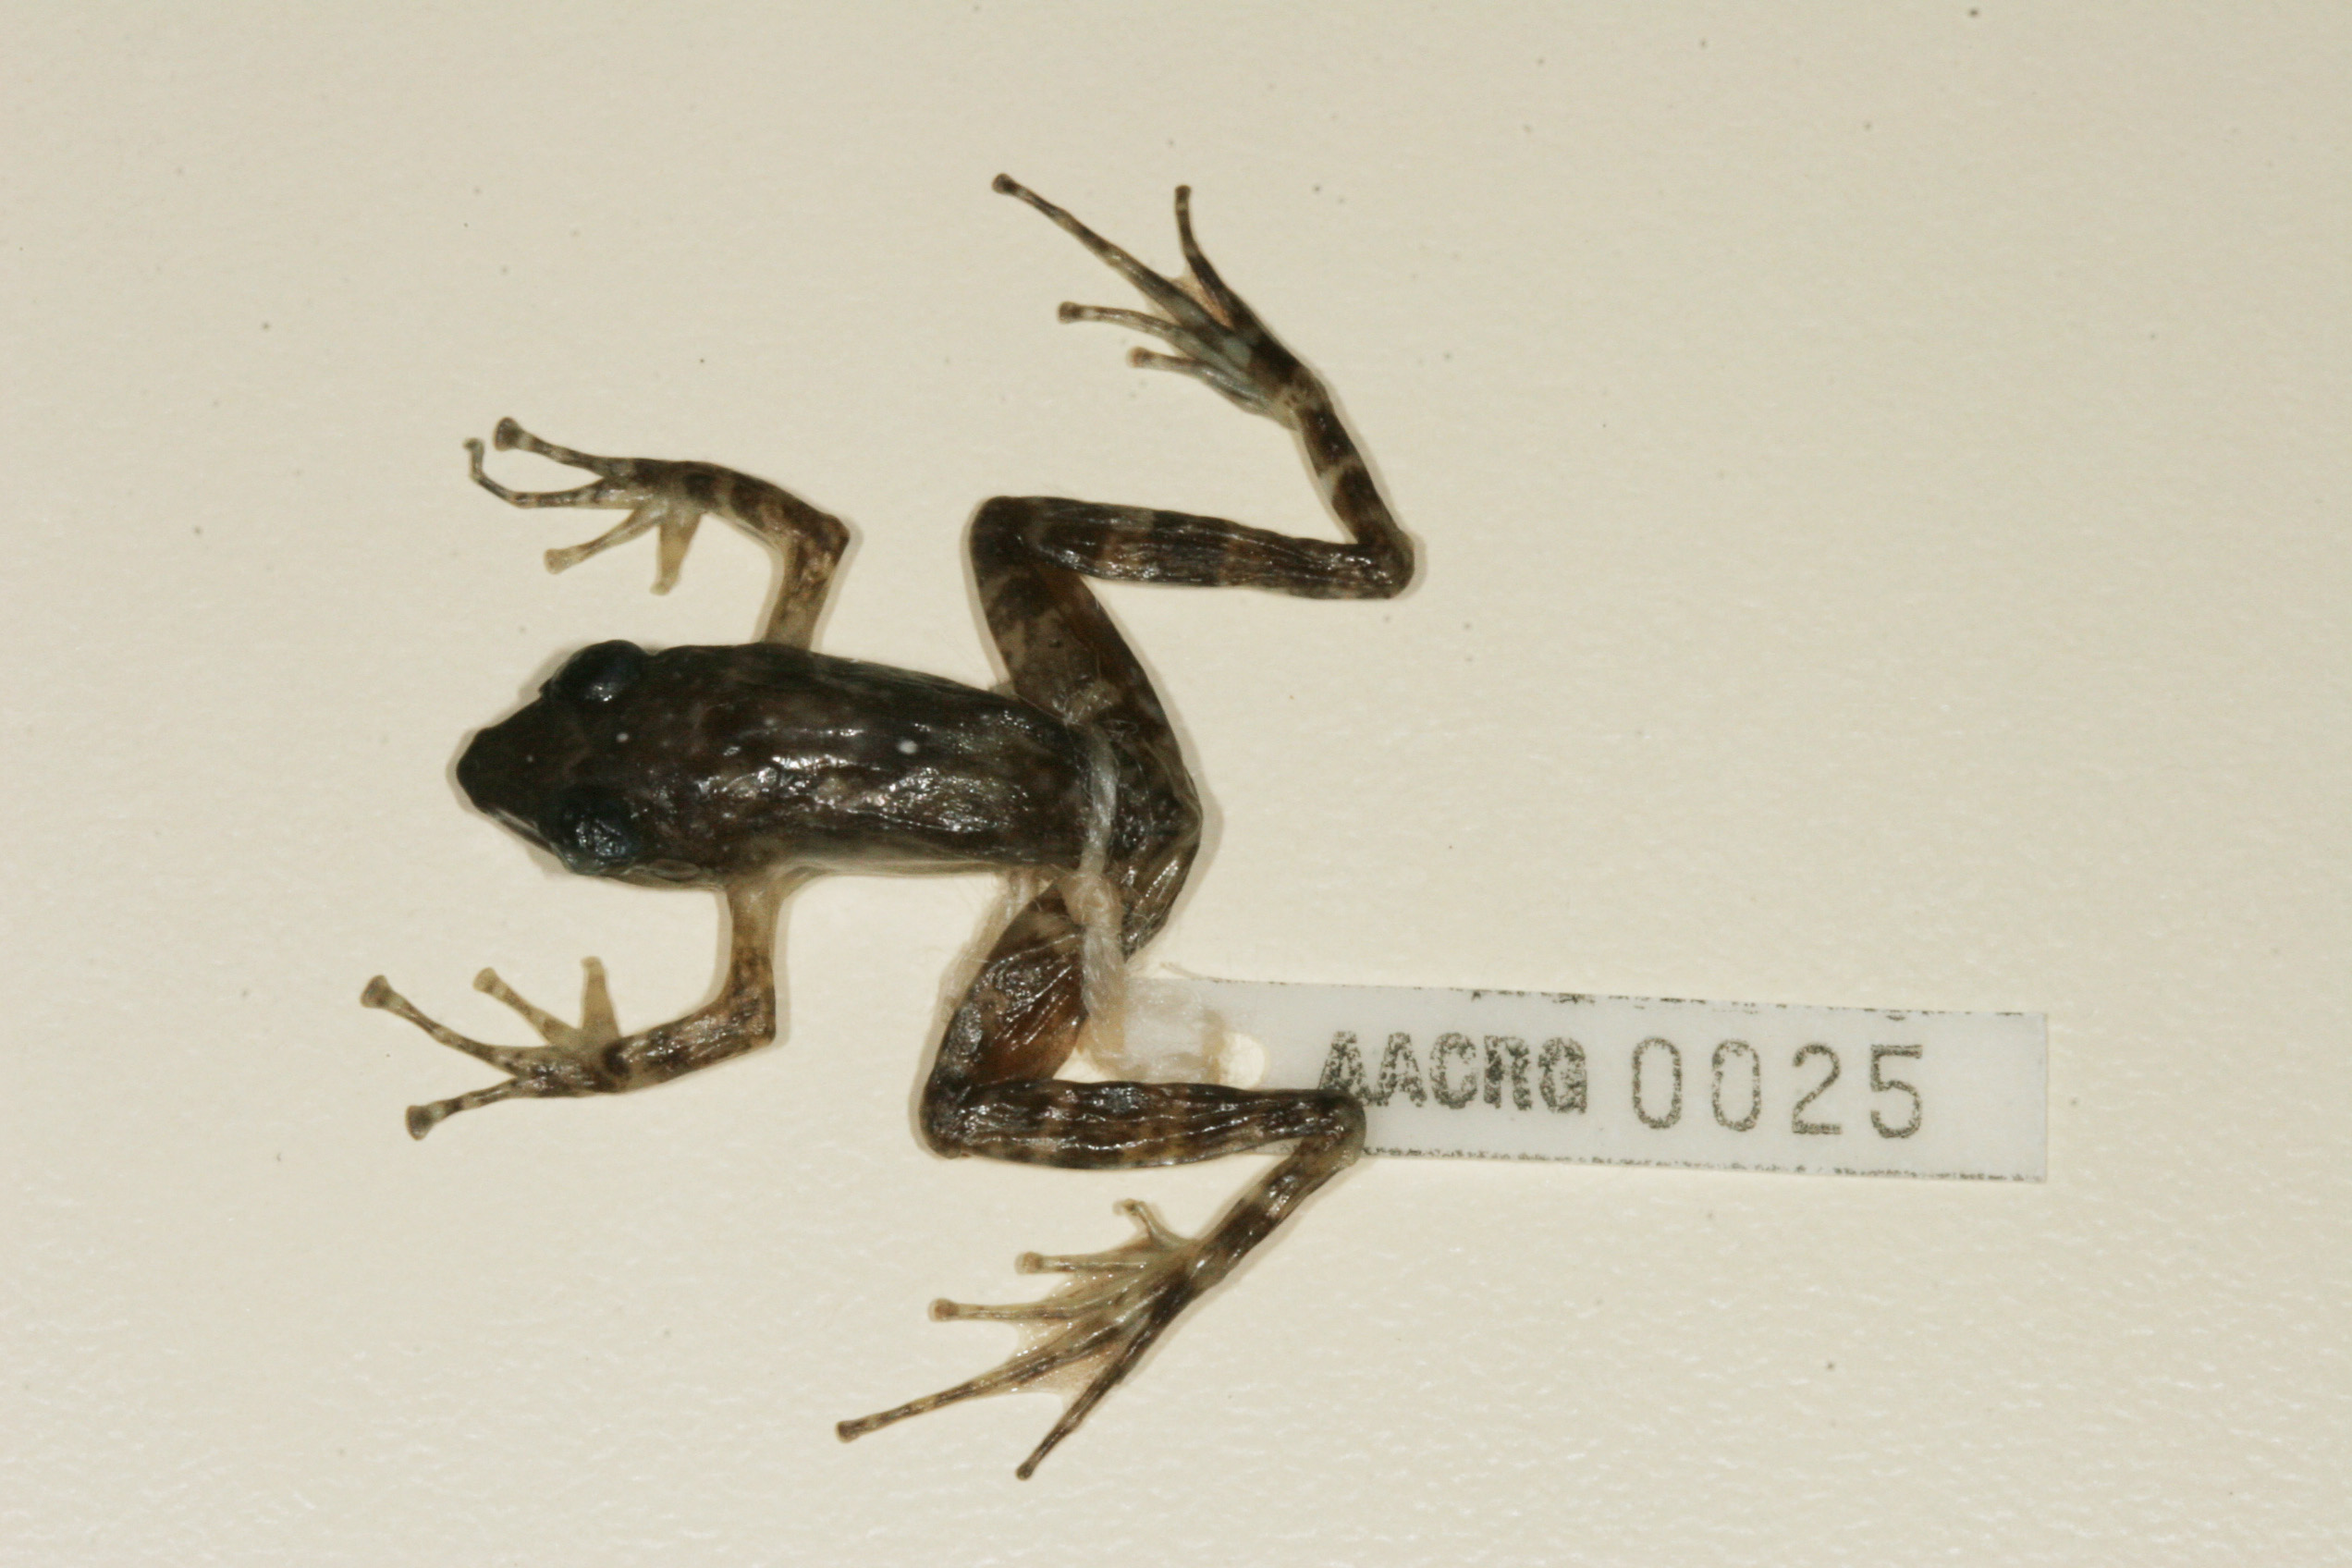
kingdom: Animalia
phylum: Chordata
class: Amphibia
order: Anura
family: Pyxicephalidae
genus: Natalobatrachus
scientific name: Natalobatrachus bonebergi
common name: Natal diving frog
